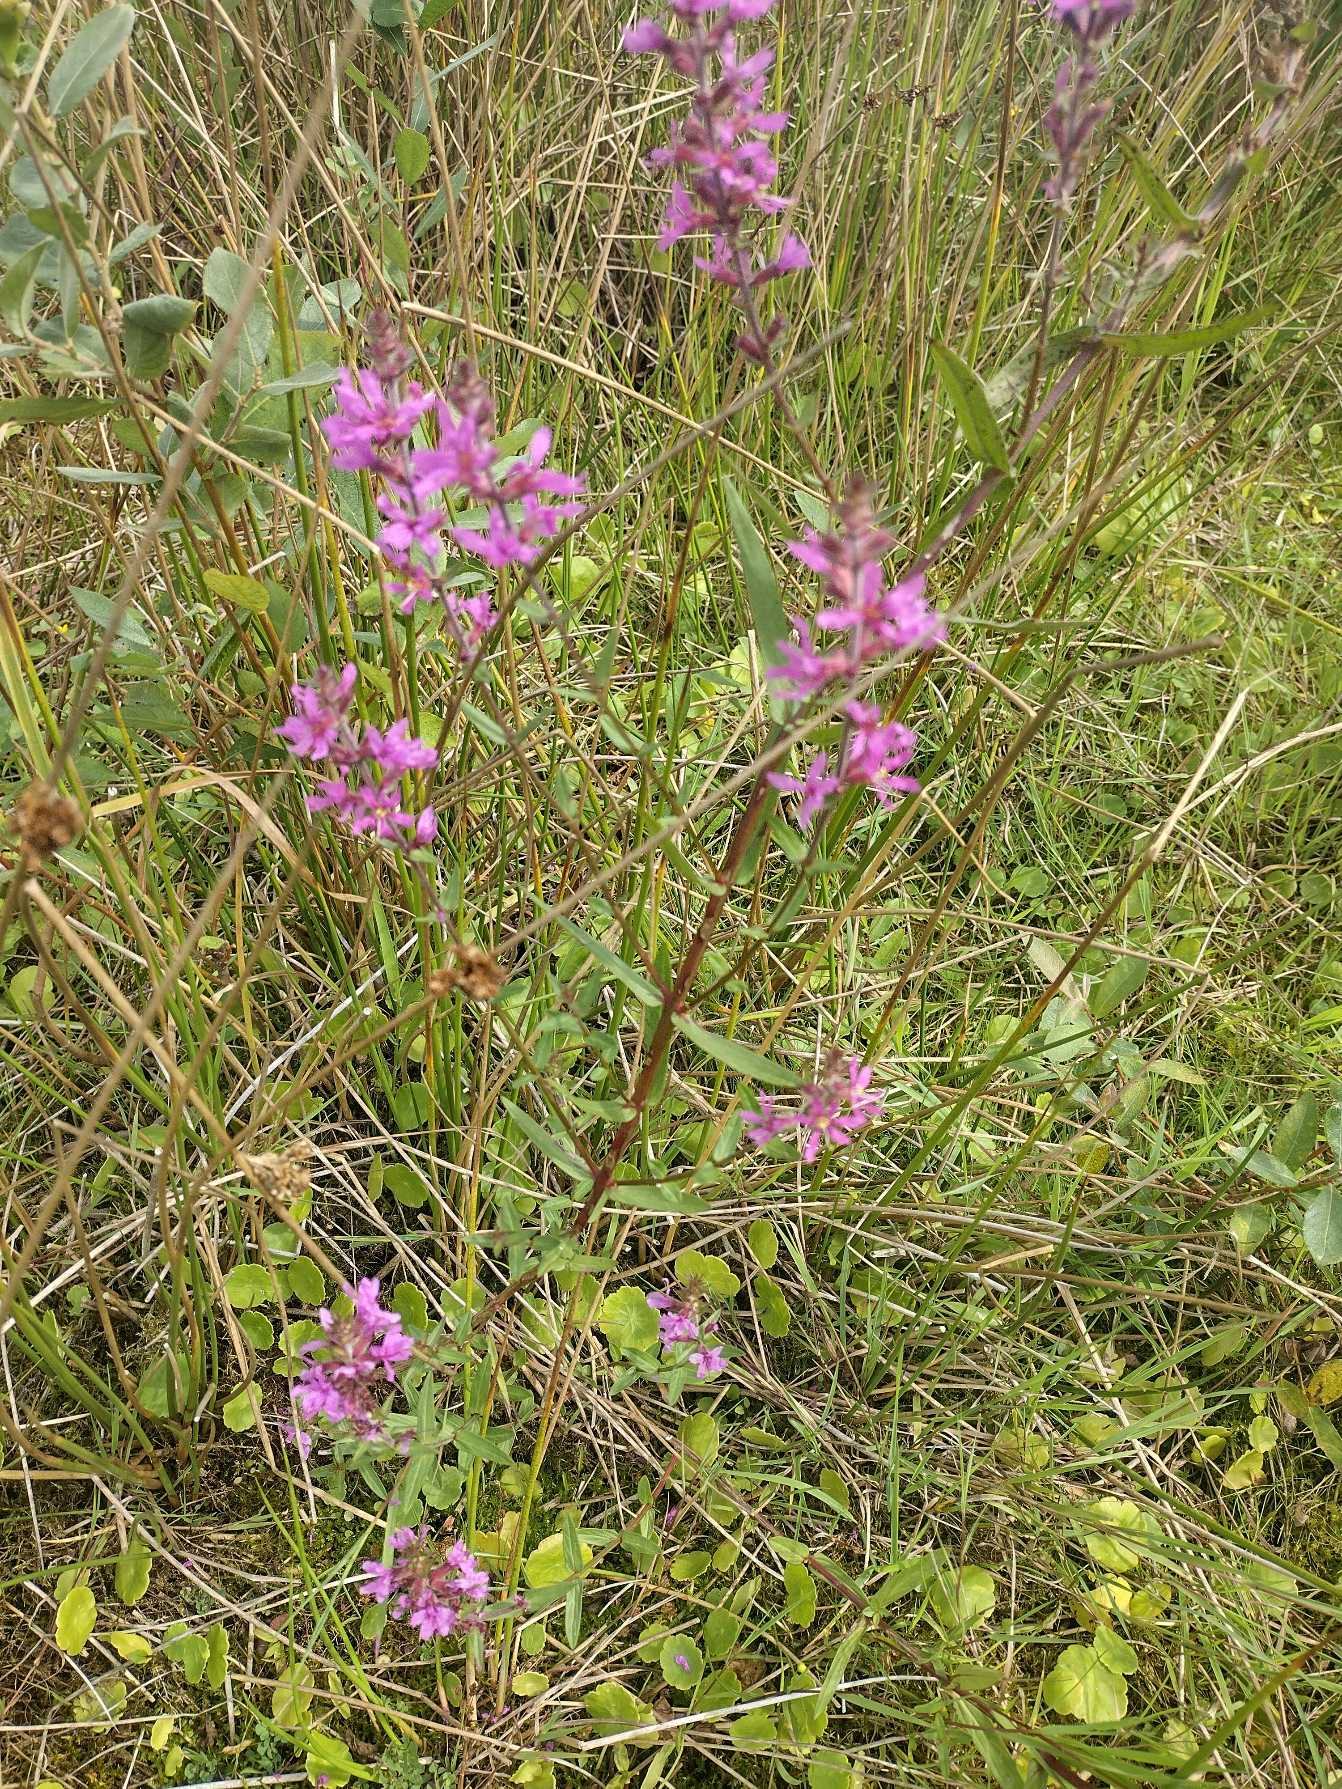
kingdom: Plantae
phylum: Tracheophyta
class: Magnoliopsida
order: Myrtales
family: Lythraceae
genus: Lythrum
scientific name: Lythrum salicaria
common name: Kattehale
